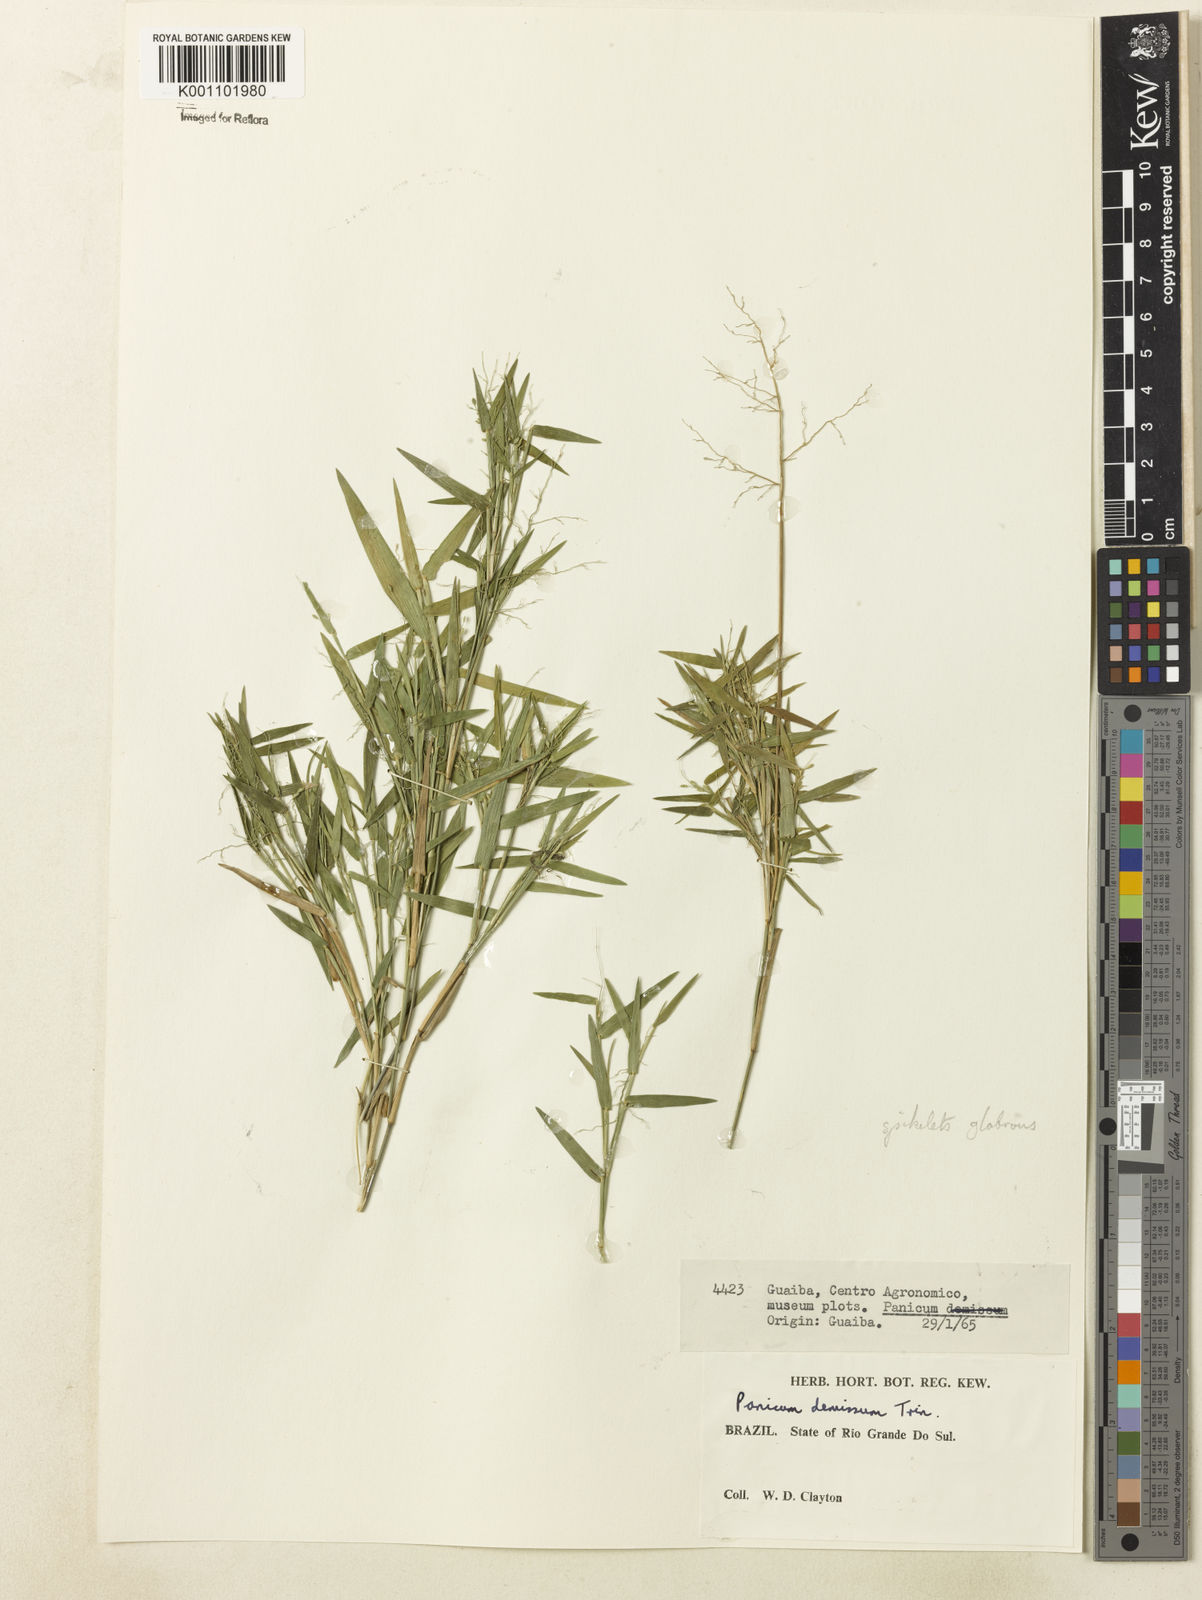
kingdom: Plantae
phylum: Tracheophyta
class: Liliopsida
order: Poales
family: Poaceae
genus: Dichanthelium
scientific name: Dichanthelium sabulorum
